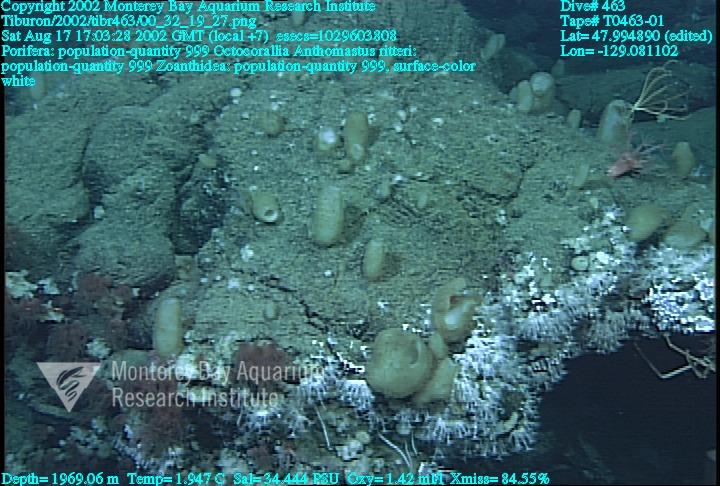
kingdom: Animalia
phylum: Porifera
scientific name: Porifera
